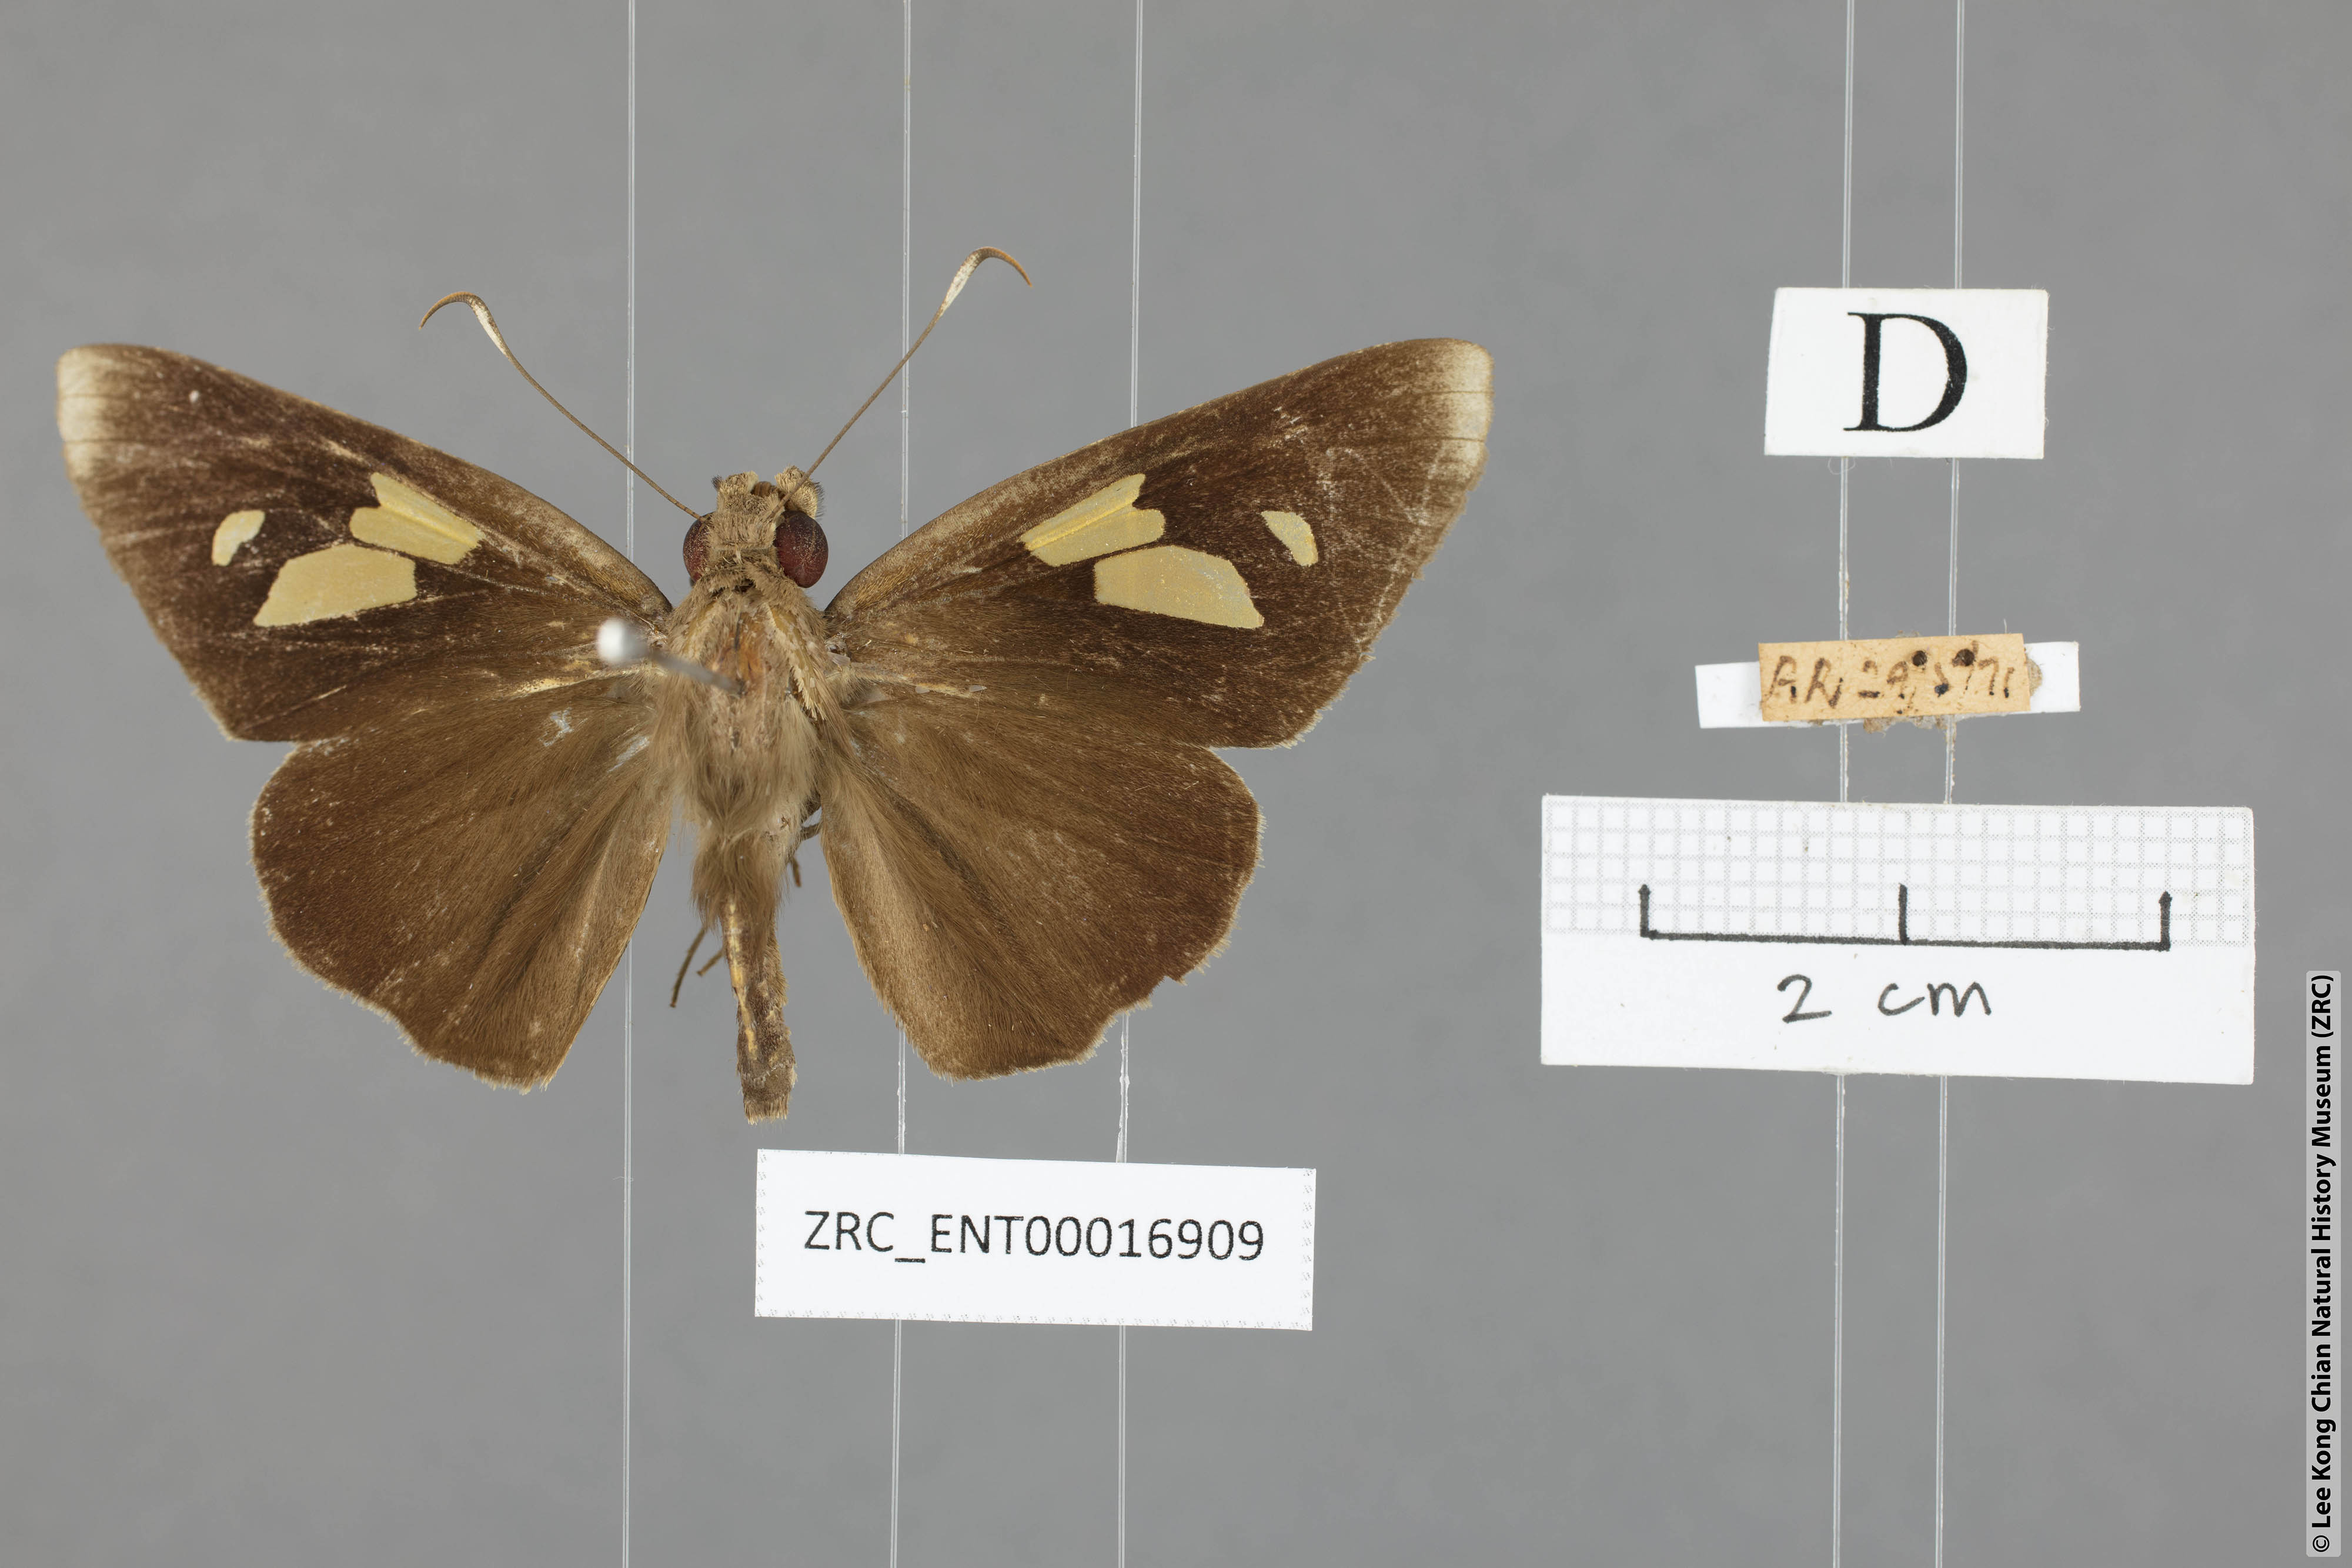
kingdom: Animalia
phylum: Arthropoda
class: Insecta
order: Lepidoptera
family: Hesperiidae
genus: Erionota
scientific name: Erionota
